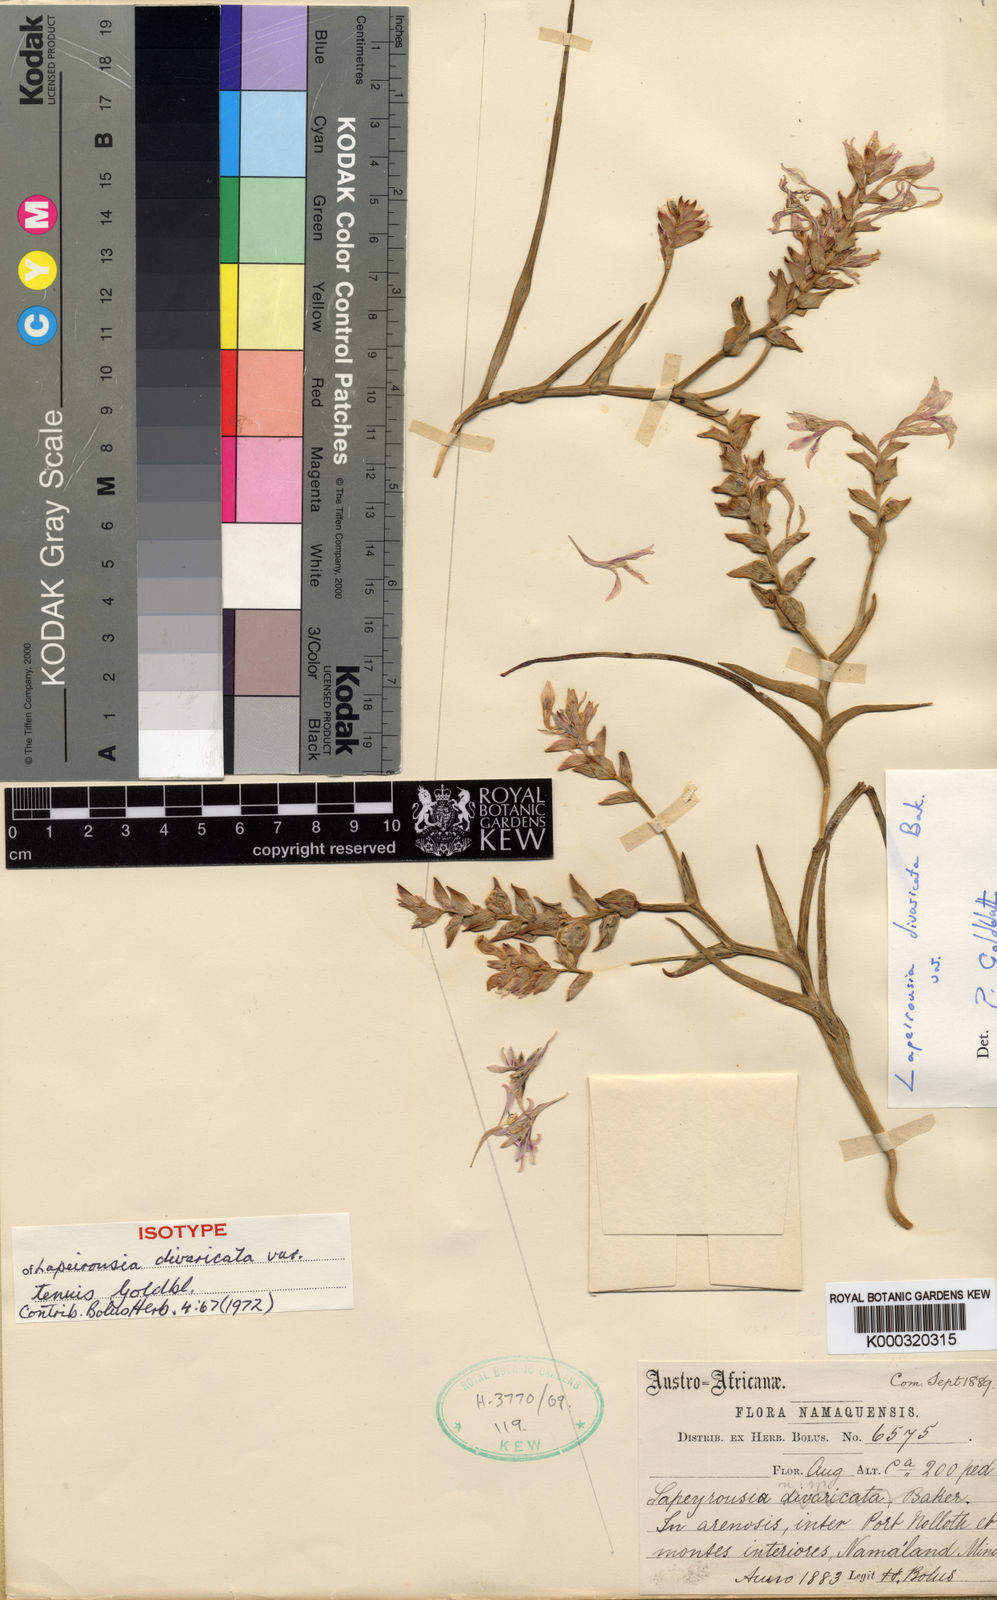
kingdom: Plantae
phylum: Tracheophyta
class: Liliopsida
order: Asparagales
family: Iridaceae
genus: Lapeirousia
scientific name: Lapeirousia tenuis
